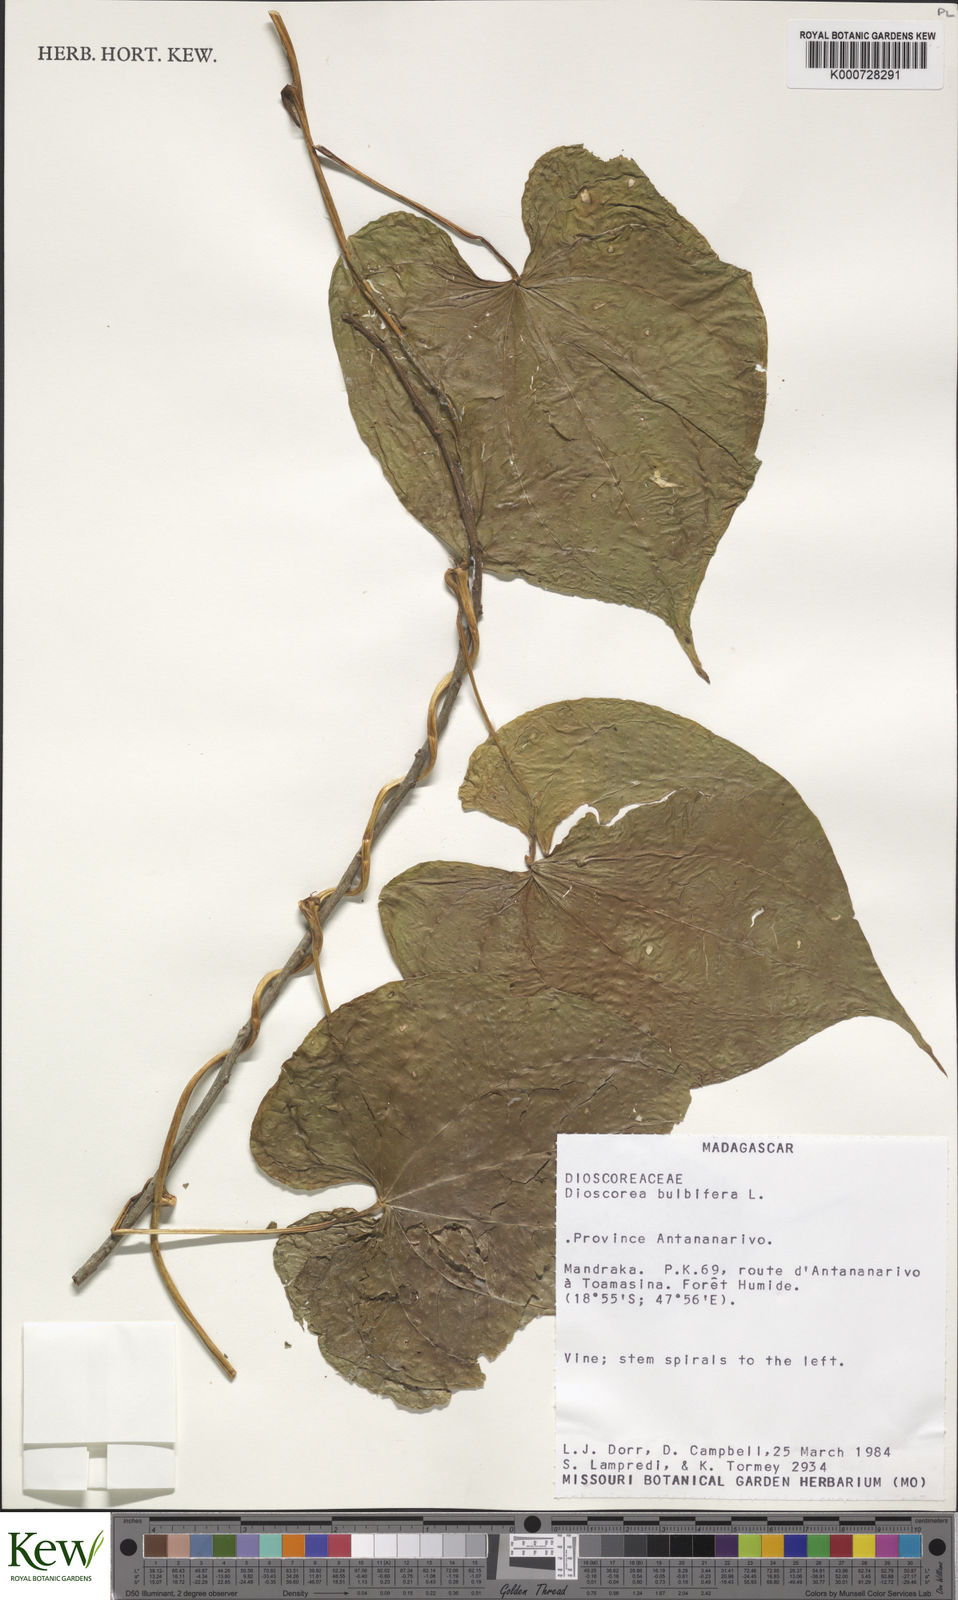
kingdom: Plantae
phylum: Tracheophyta
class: Liliopsida
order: Dioscoreales
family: Dioscoreaceae
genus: Dioscorea
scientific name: Dioscorea bulbifera
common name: Air yam
